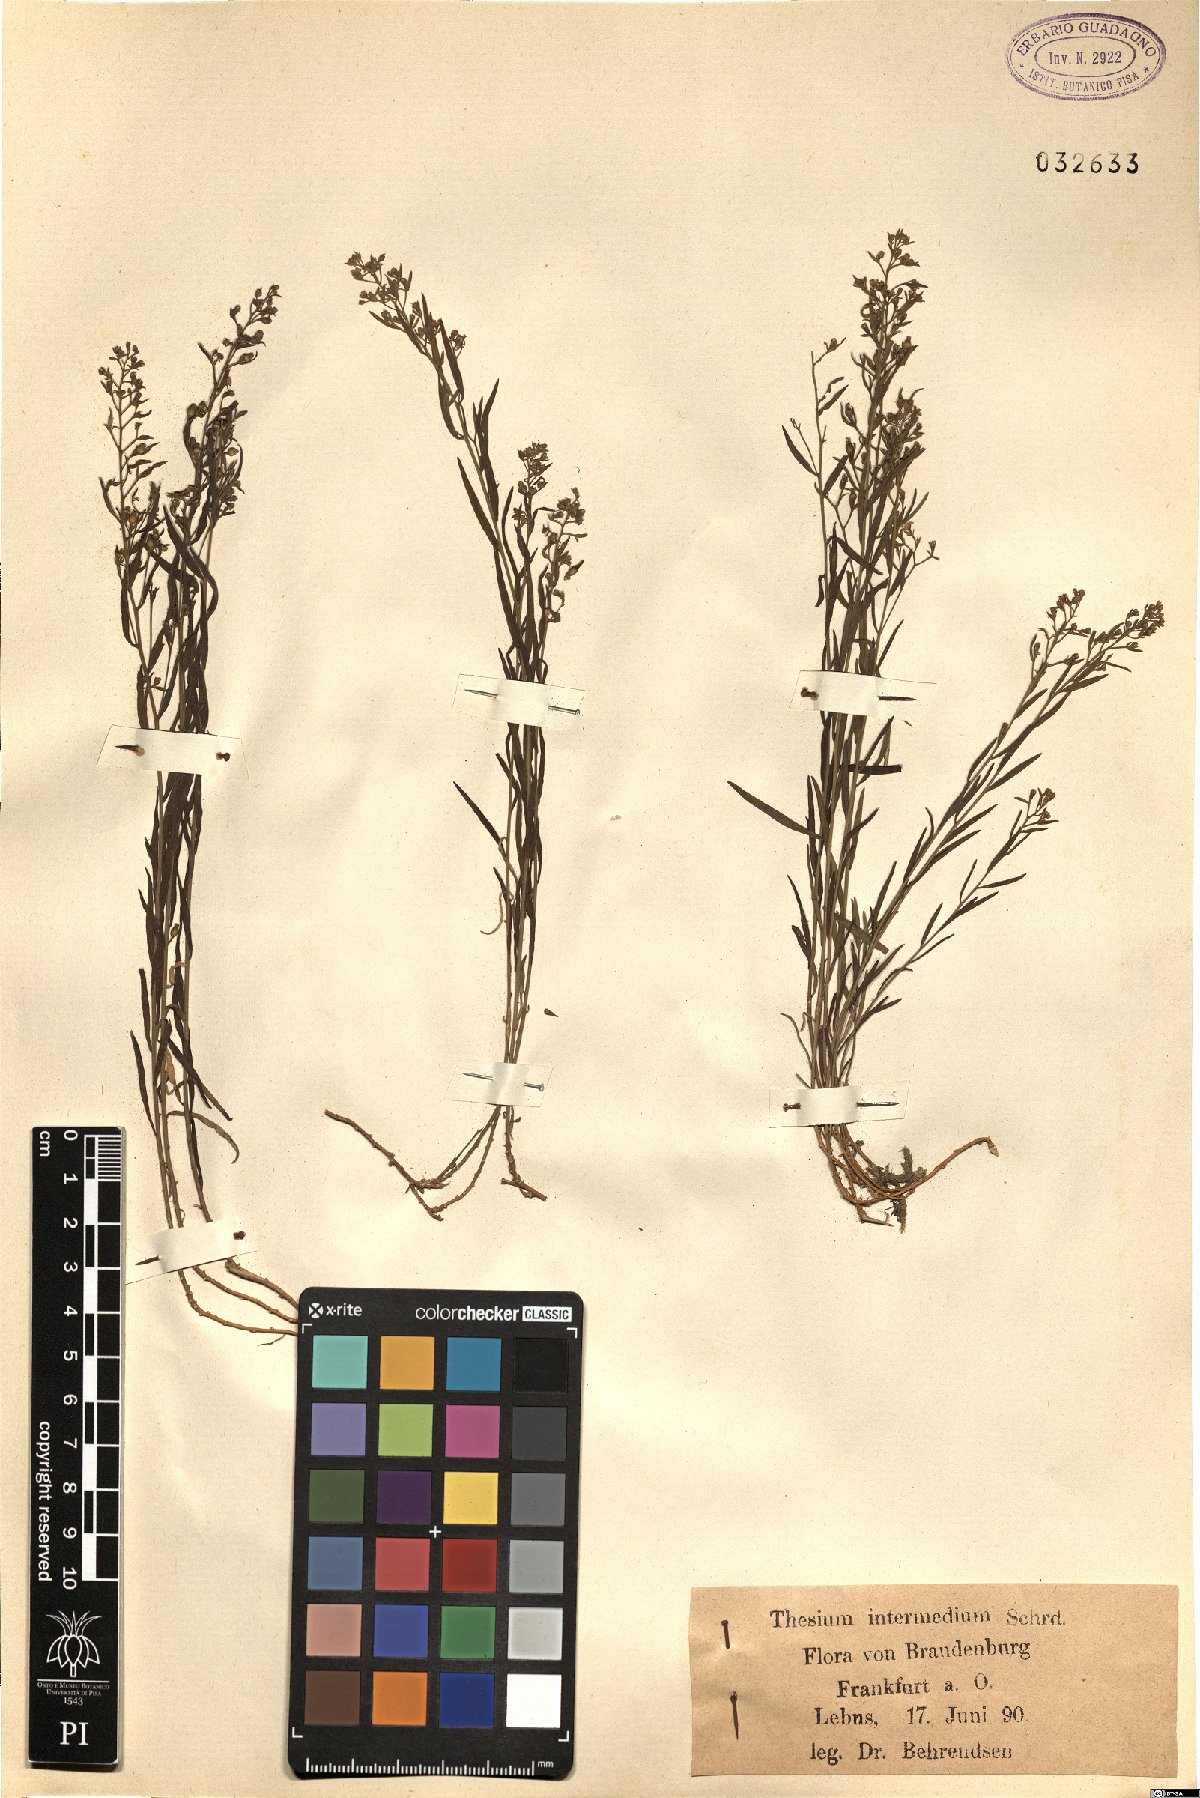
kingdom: Plantae
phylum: Tracheophyta
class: Magnoliopsida
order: Santalales
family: Thesiaceae
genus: Thesium
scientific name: Thesium linophyllon
